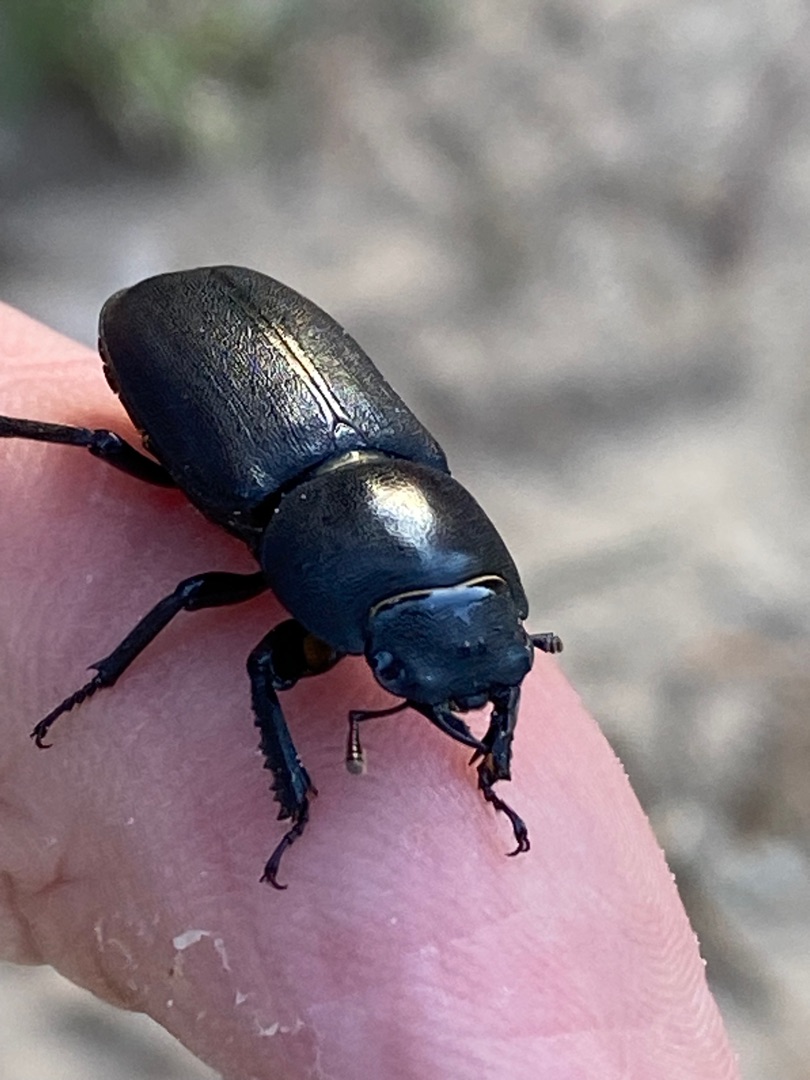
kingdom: Animalia
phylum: Arthropoda
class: Insecta
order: Coleoptera
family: Lucanidae
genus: Dorcus
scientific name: Dorcus parallelipipedus
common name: Bøghjort
